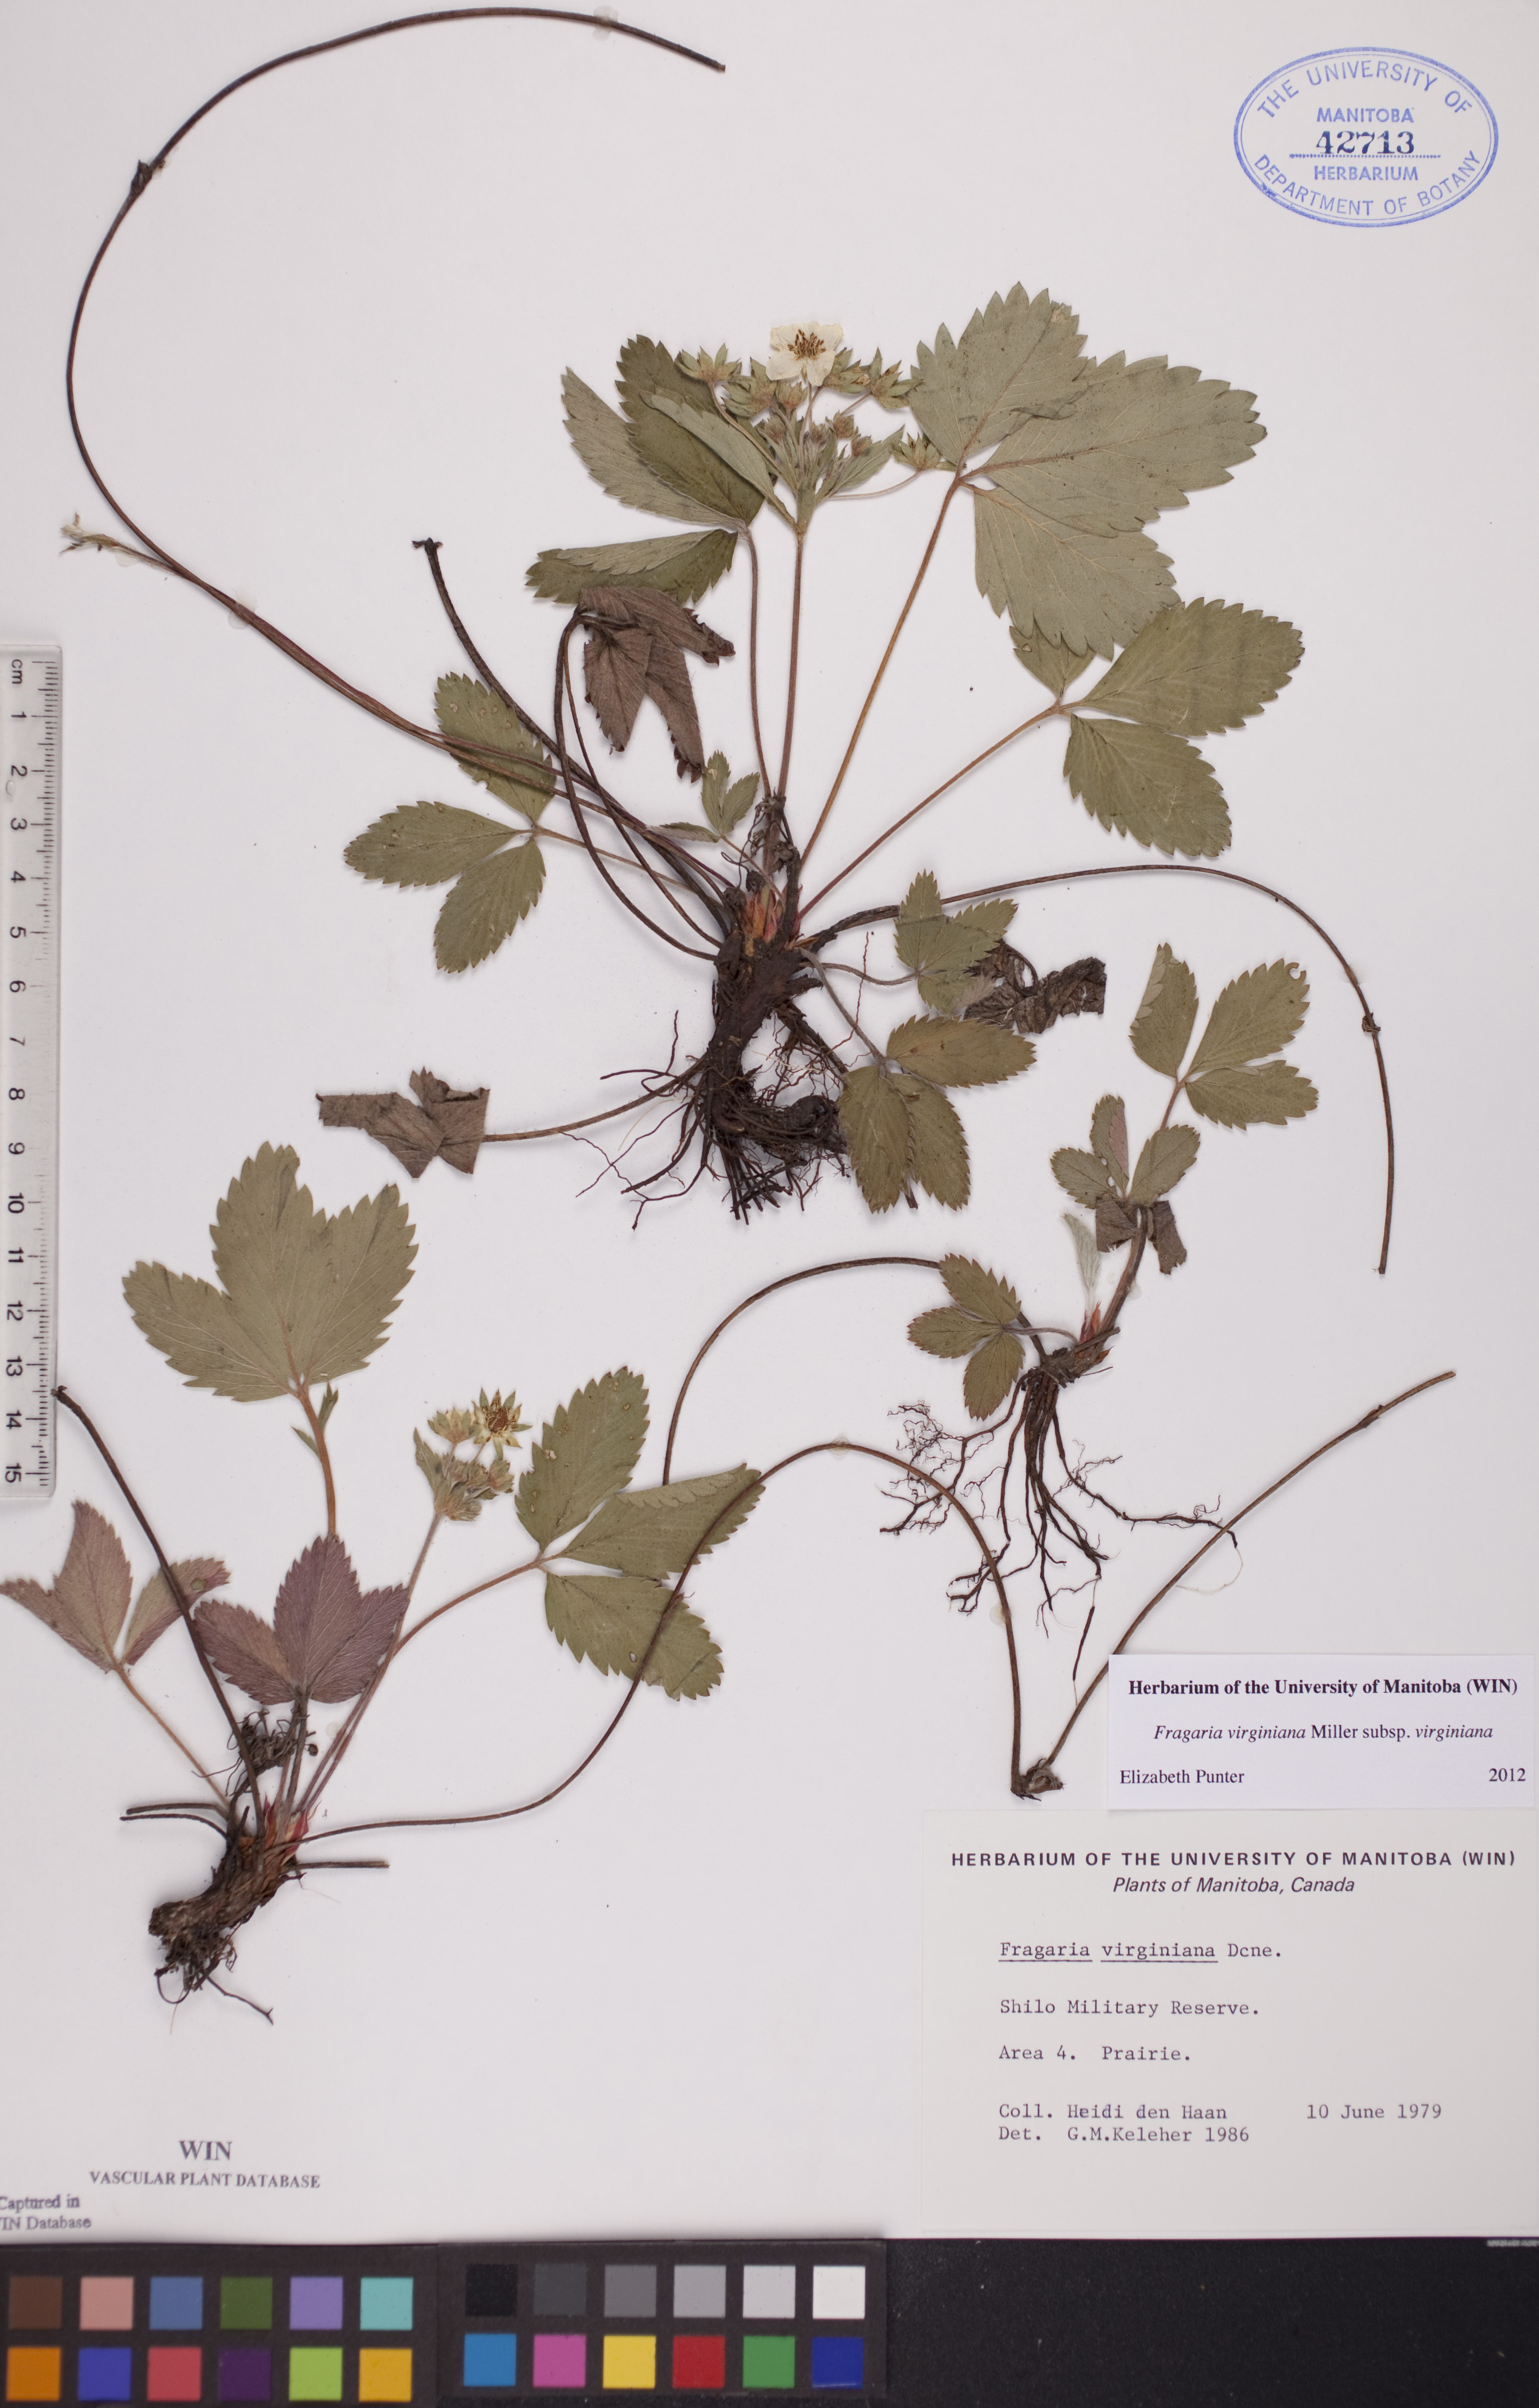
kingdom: Plantae
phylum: Tracheophyta
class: Magnoliopsida
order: Rosales
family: Rosaceae
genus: Fragaria
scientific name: Fragaria virginiana
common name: Thickleaved wild strawberry
